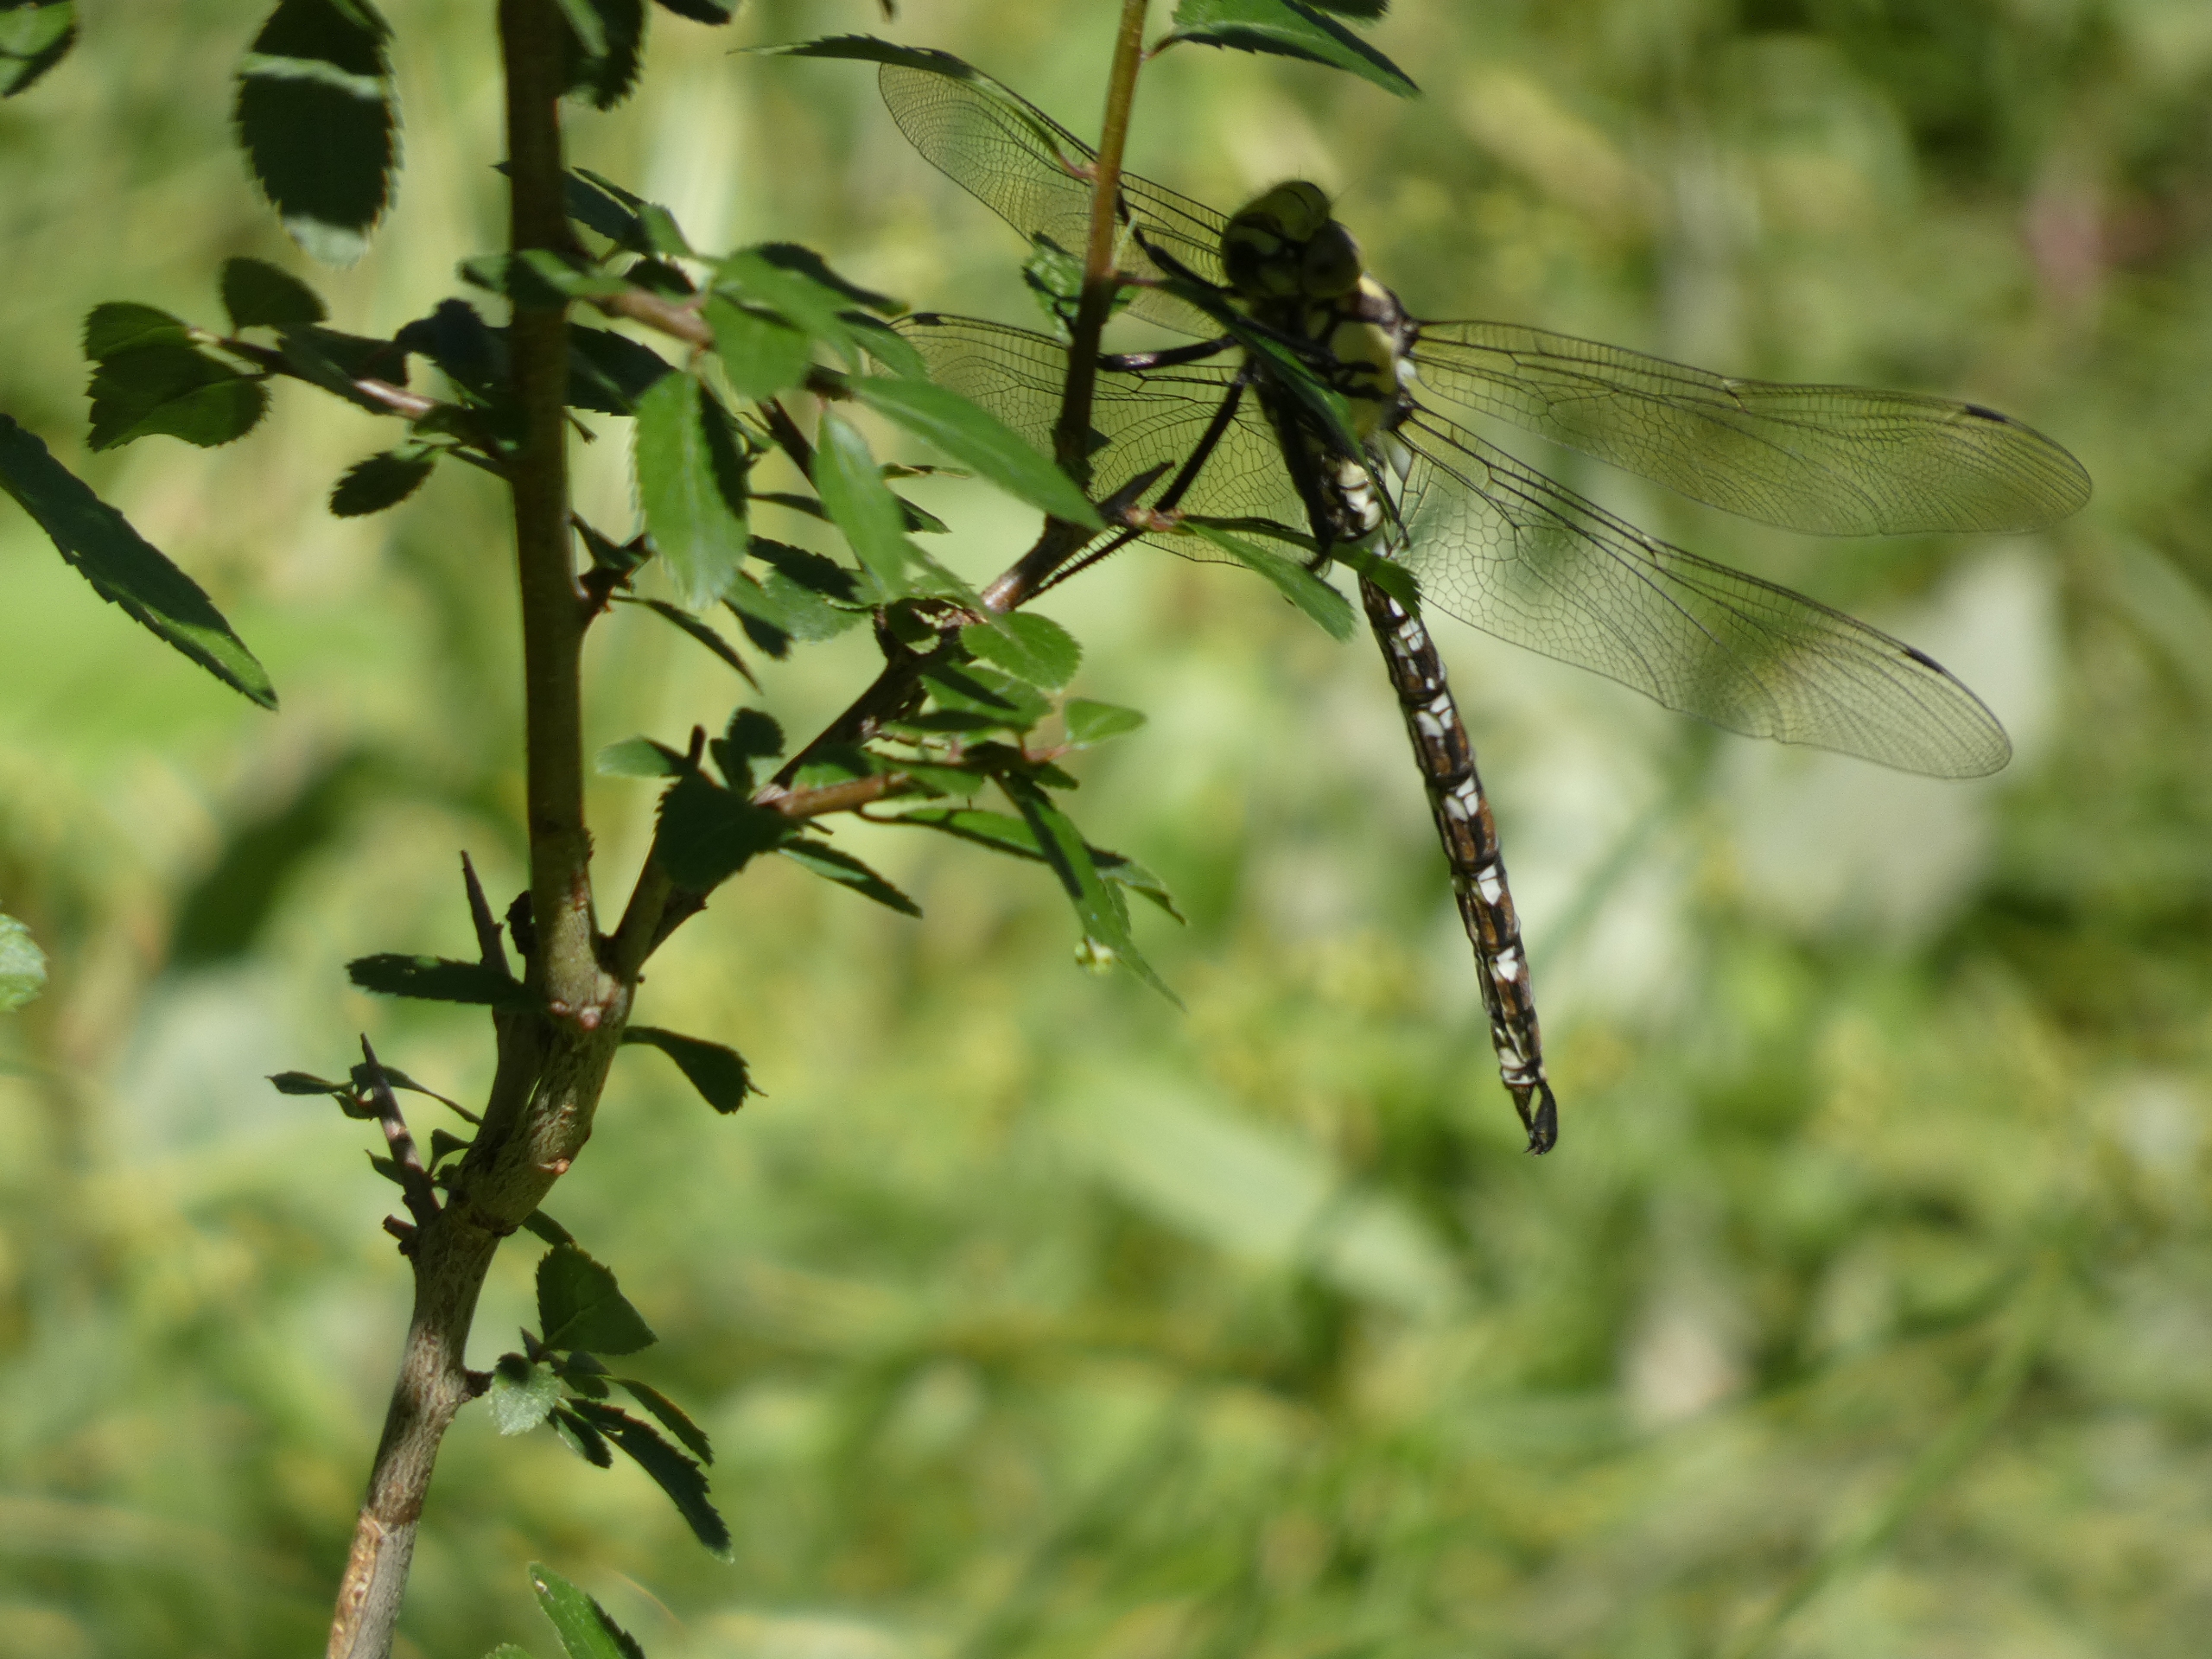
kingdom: Animalia
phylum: Arthropoda
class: Insecta
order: Odonata
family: Aeshnidae
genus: Aeshna
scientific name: Aeshna cyanea
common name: Blå mosaikguldsmed
